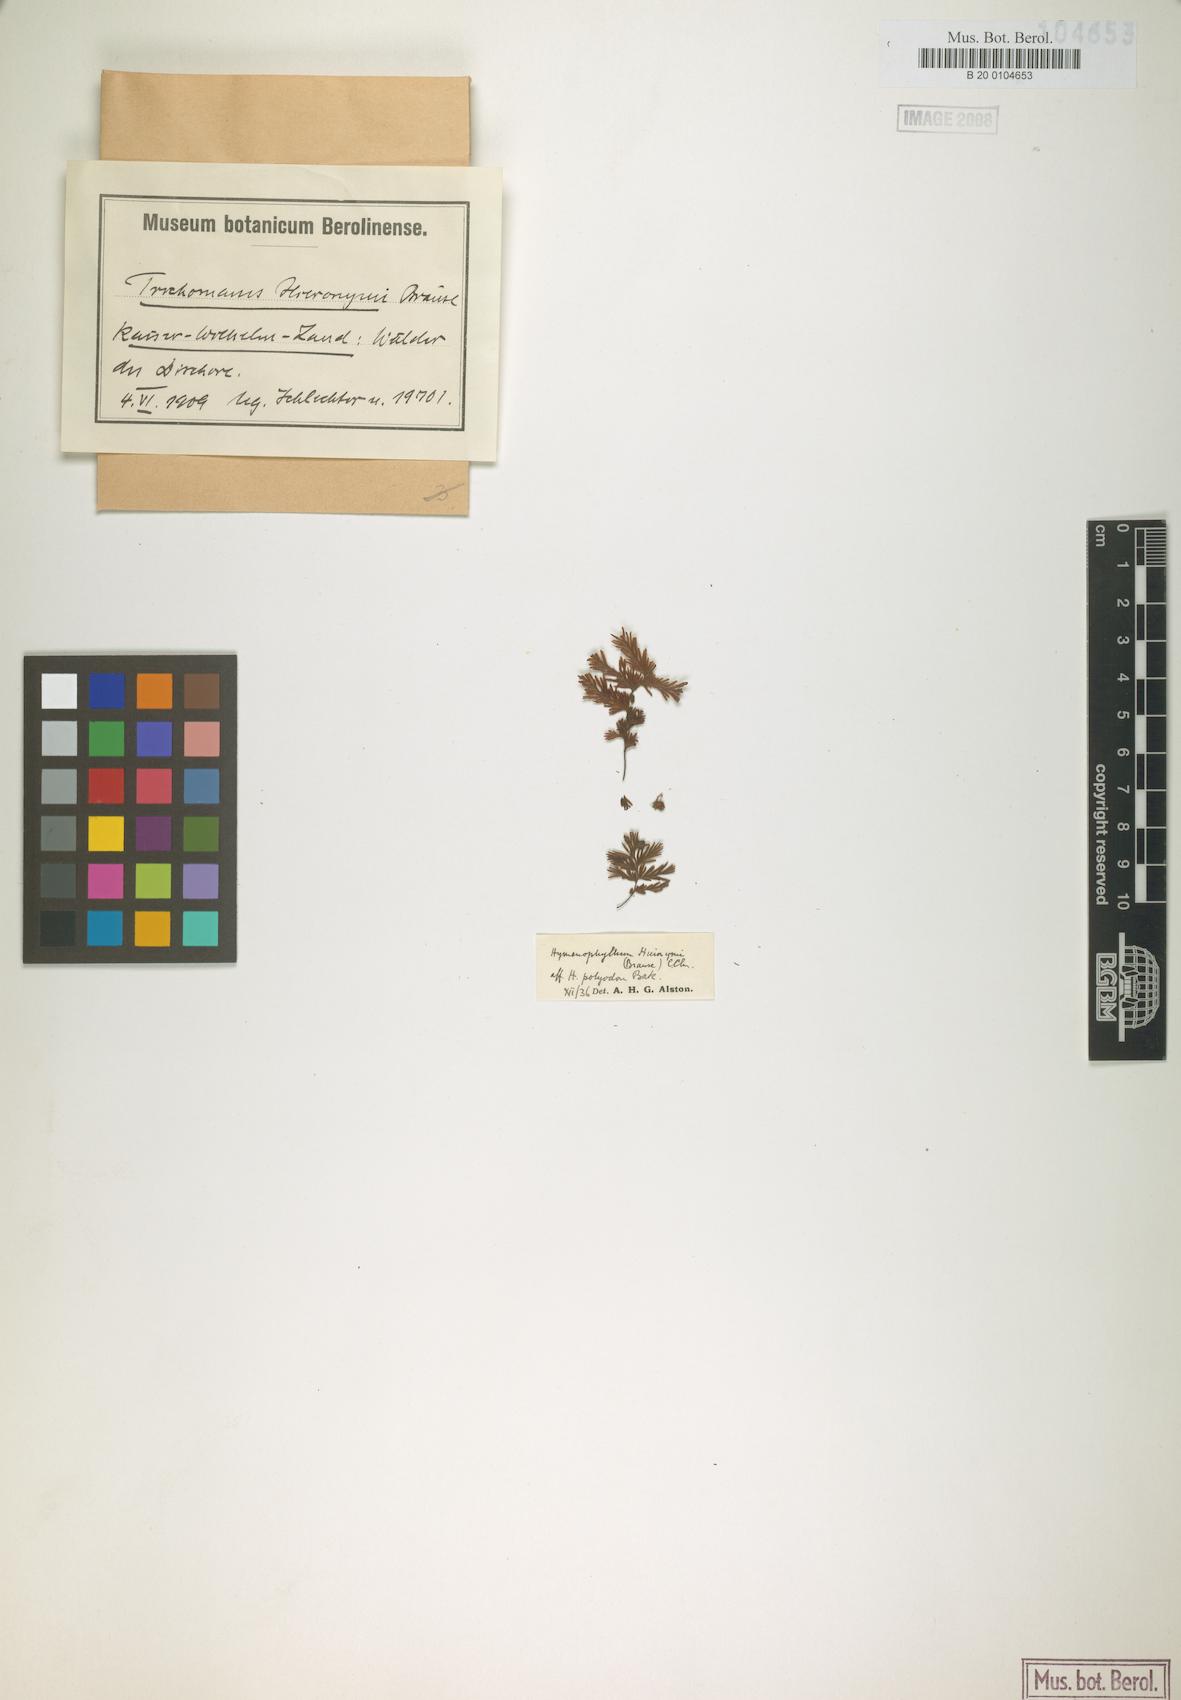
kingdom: Plantae
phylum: Tracheophyta
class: Polypodiopsida
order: Hymenophyllales
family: Hymenophyllaceae
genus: Hymenophyllum
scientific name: Hymenophyllum hieronymi
